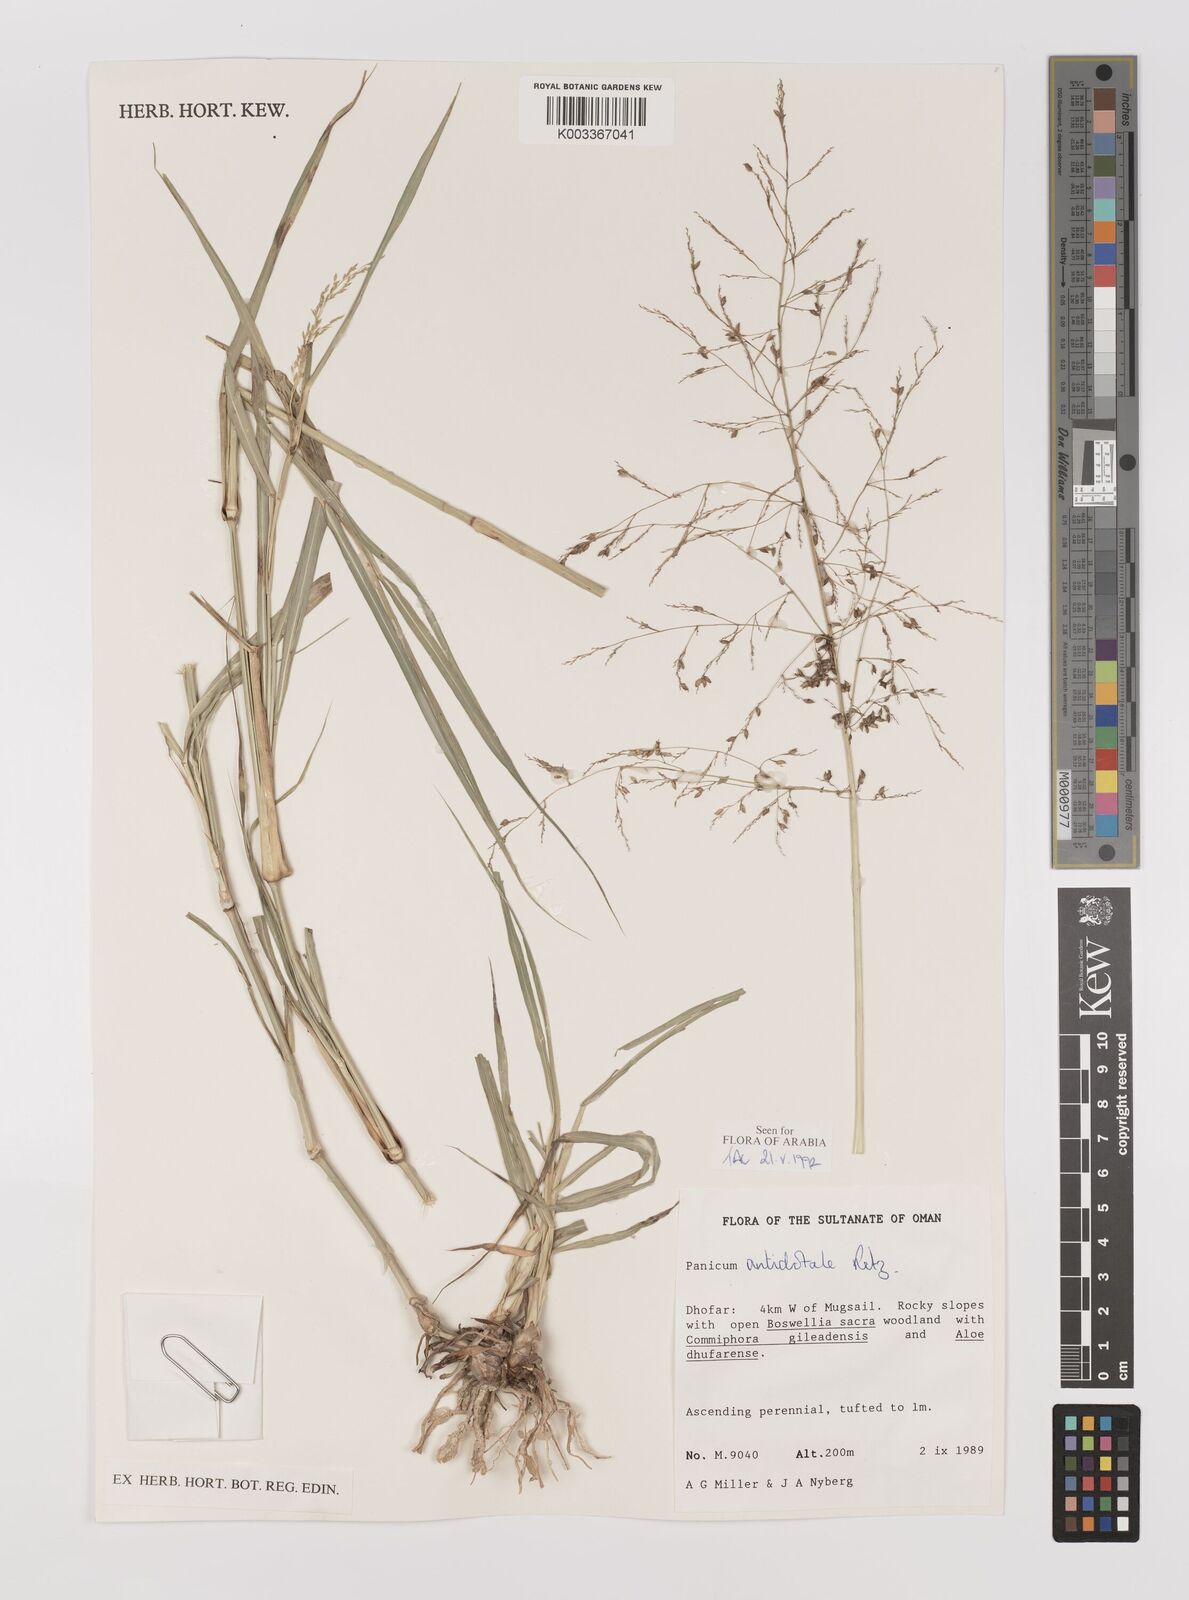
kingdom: Plantae
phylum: Tracheophyta
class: Liliopsida
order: Poales
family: Poaceae
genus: Panicum
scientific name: Panicum antidotale
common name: Blue panicum
